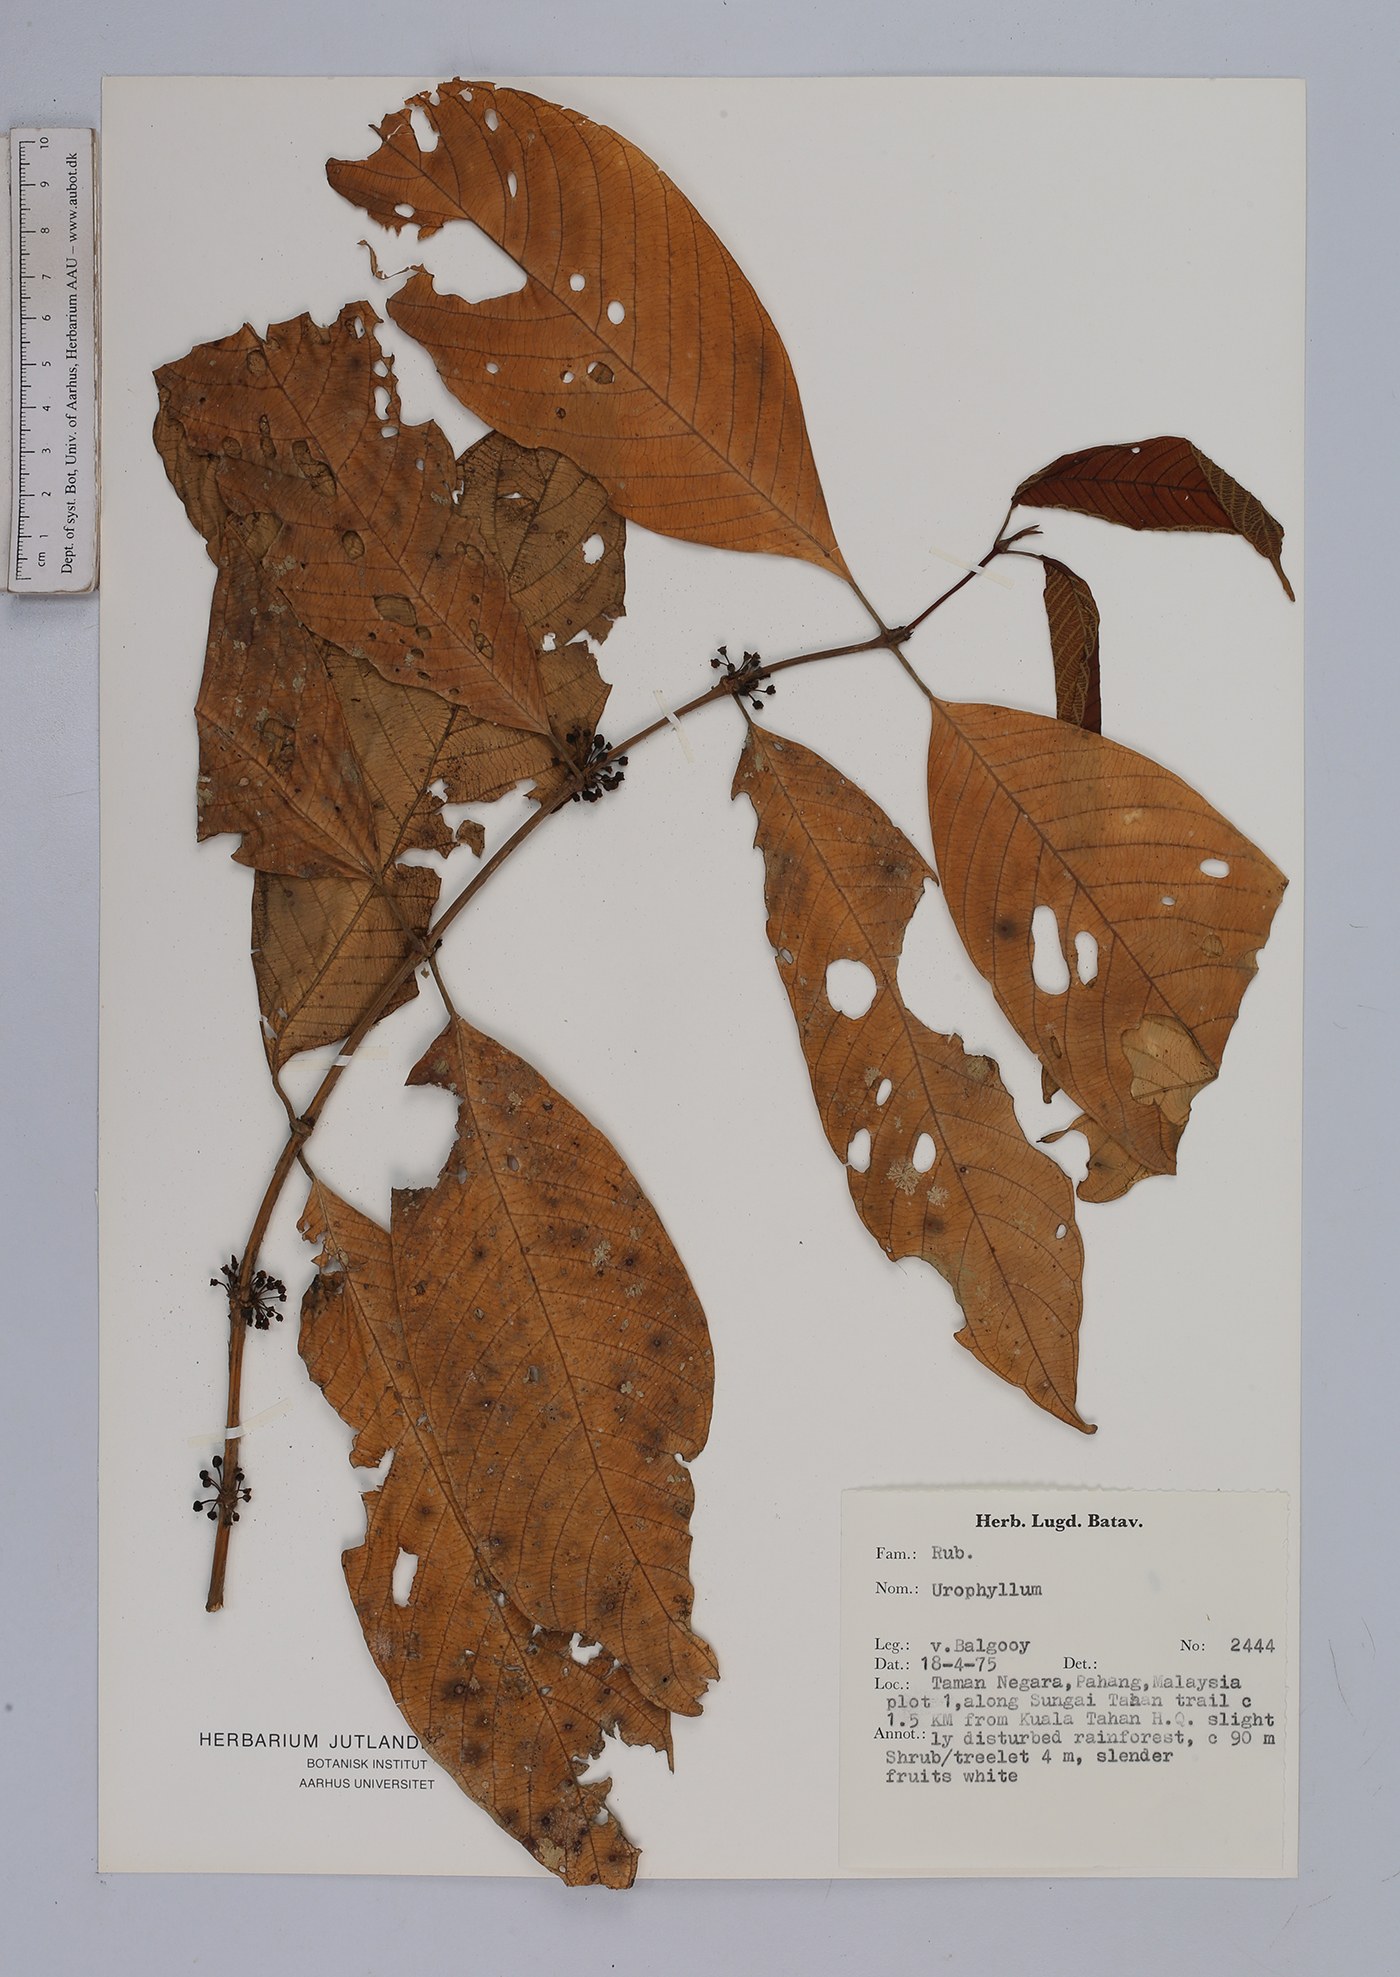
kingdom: Plantae
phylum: Tracheophyta
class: Magnoliopsida
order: Gentianales
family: Rubiaceae
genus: Urophyllum
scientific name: Urophyllum
